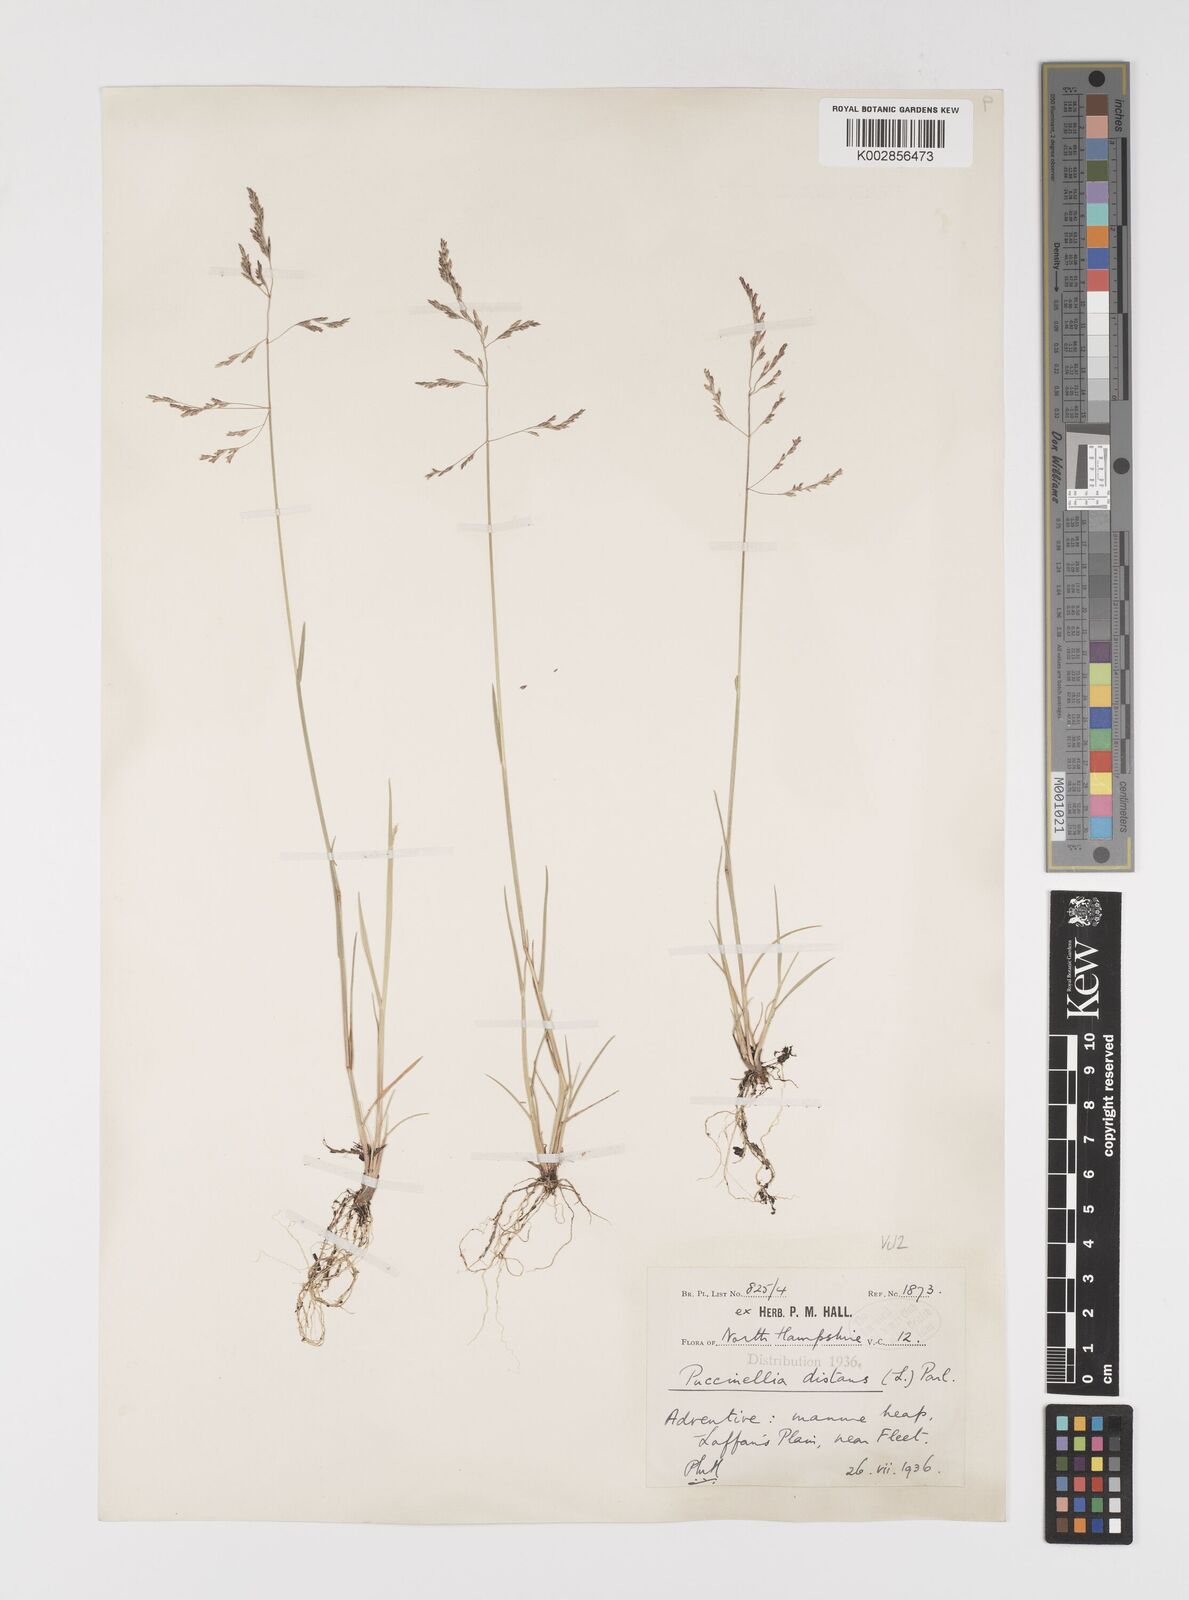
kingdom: Plantae
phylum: Tracheophyta
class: Liliopsida
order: Poales
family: Poaceae
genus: Puccinellia
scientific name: Puccinellia distans
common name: Weeping alkaligrass
